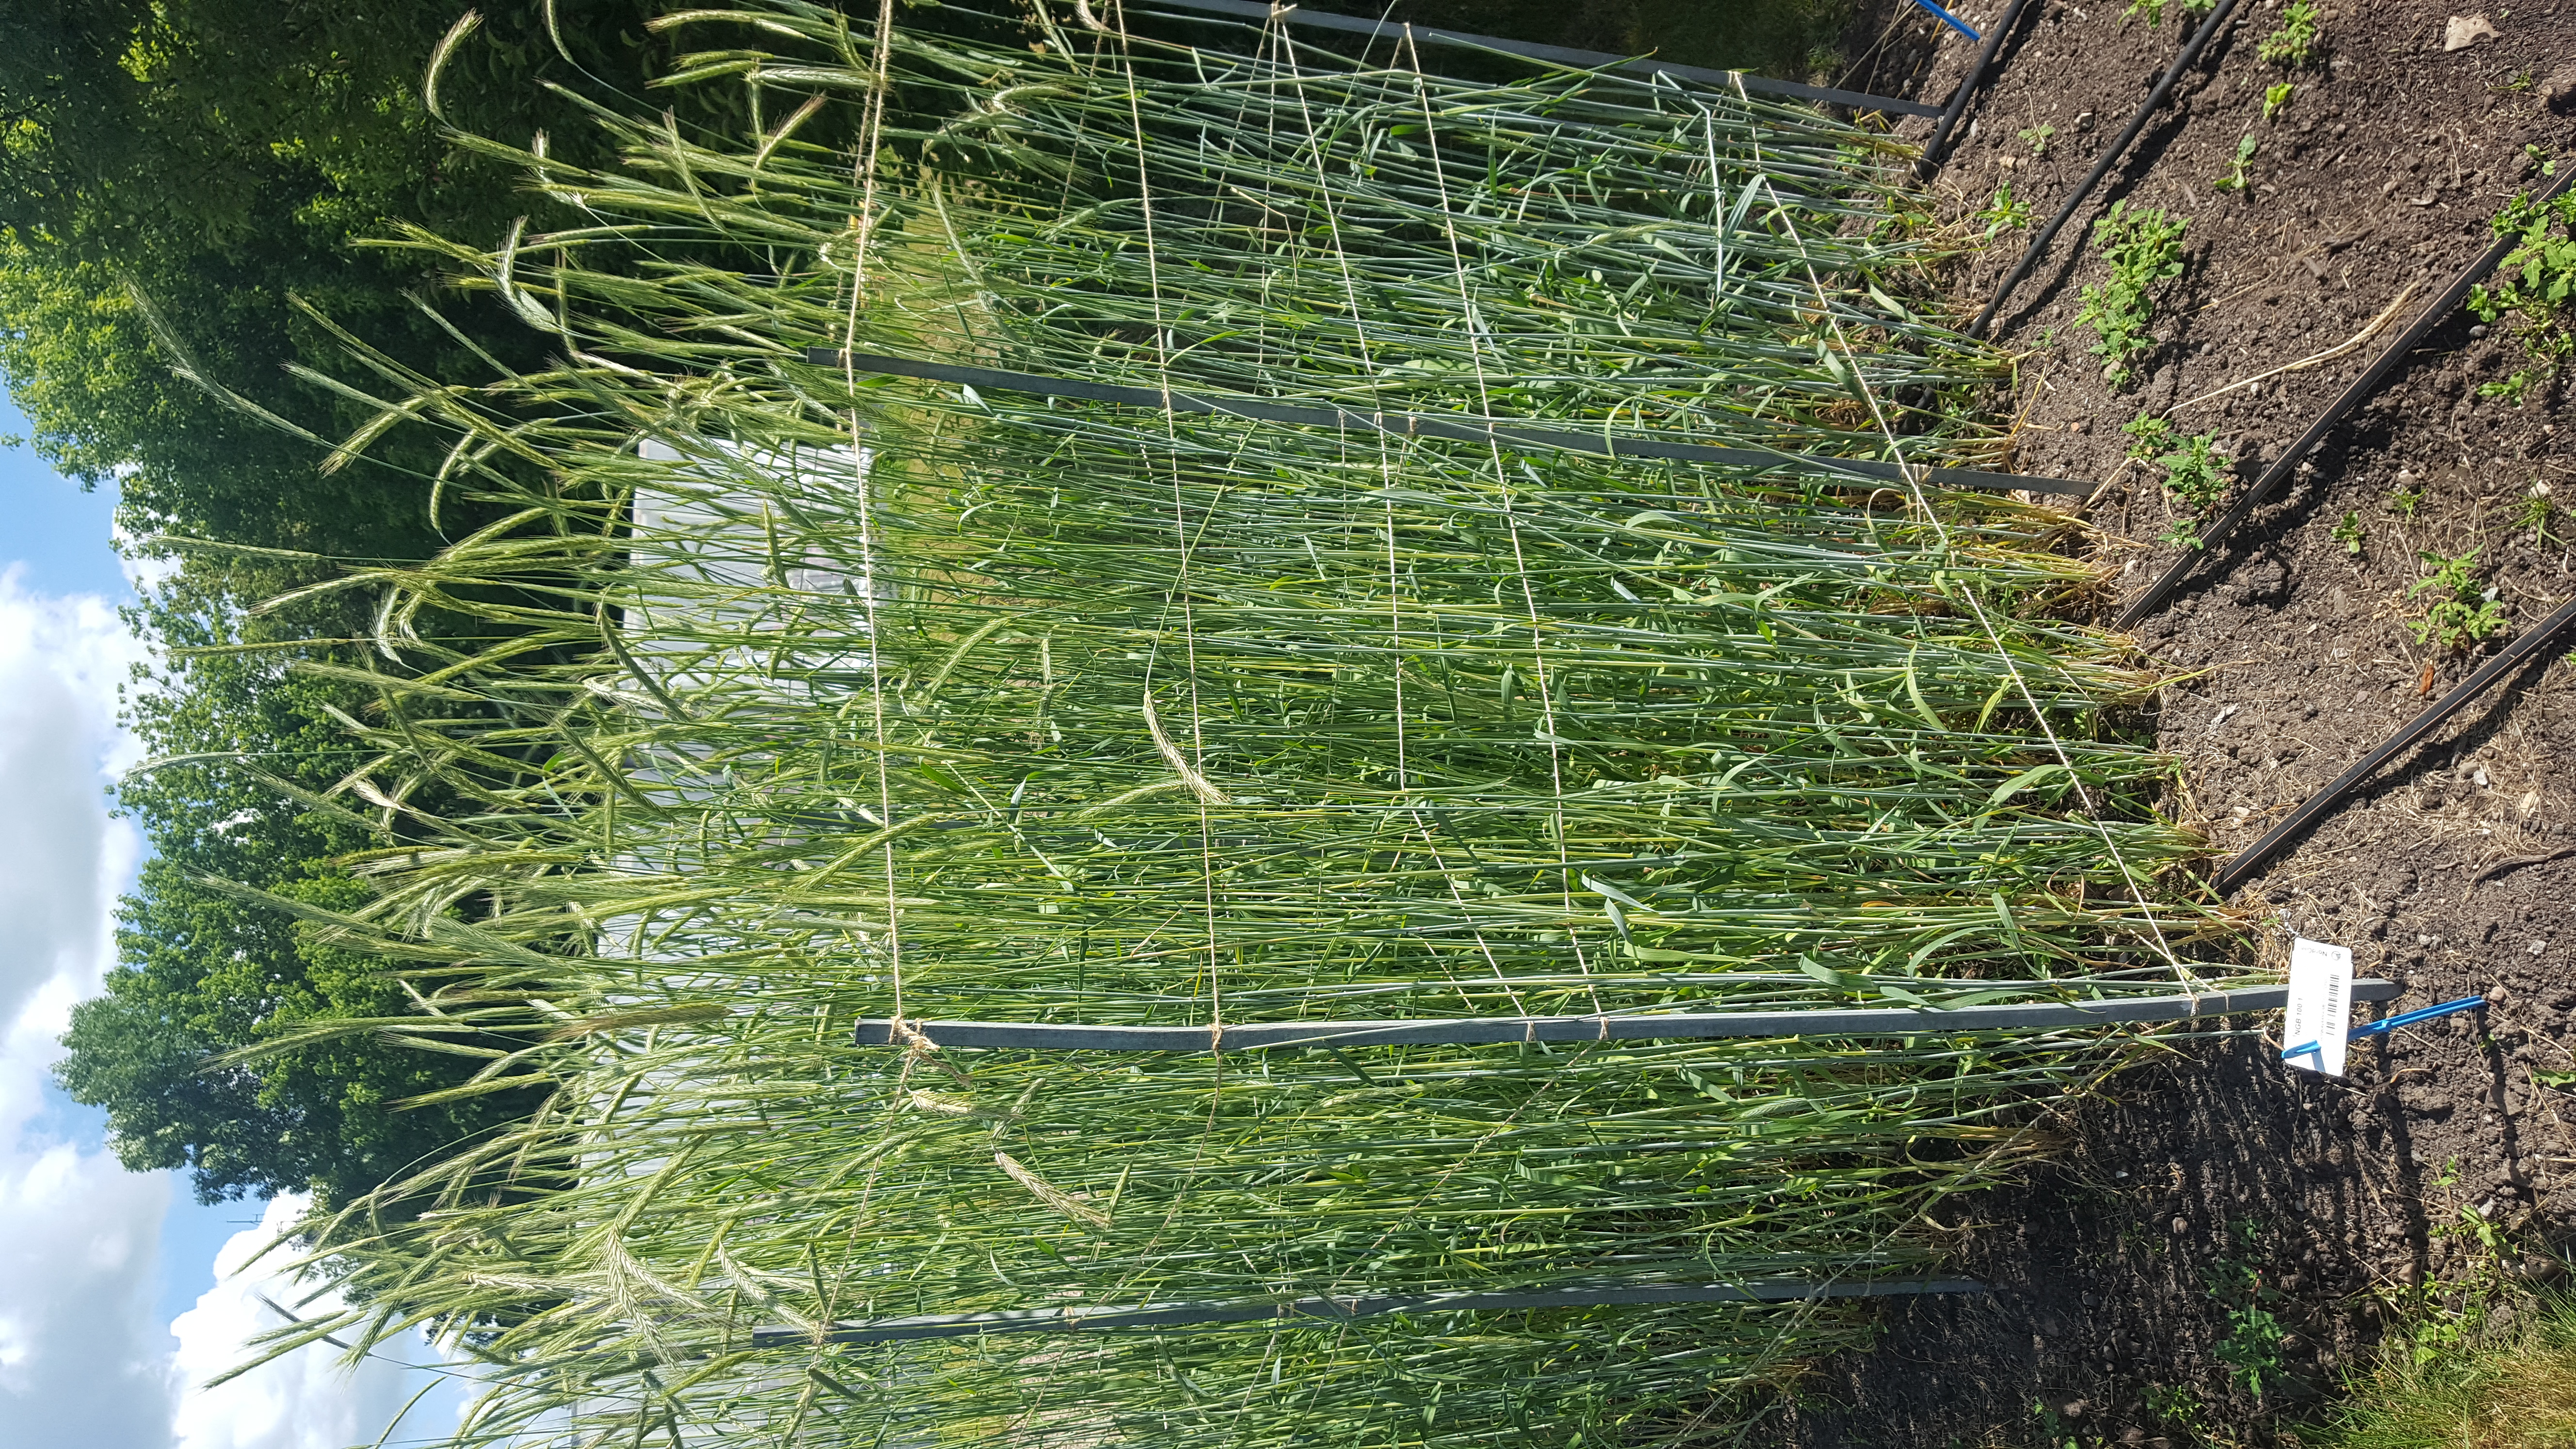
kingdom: Plantae
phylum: Tracheophyta
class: Liliopsida
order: Poales
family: Poaceae
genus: Secale
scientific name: Secale cereale
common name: Rye
